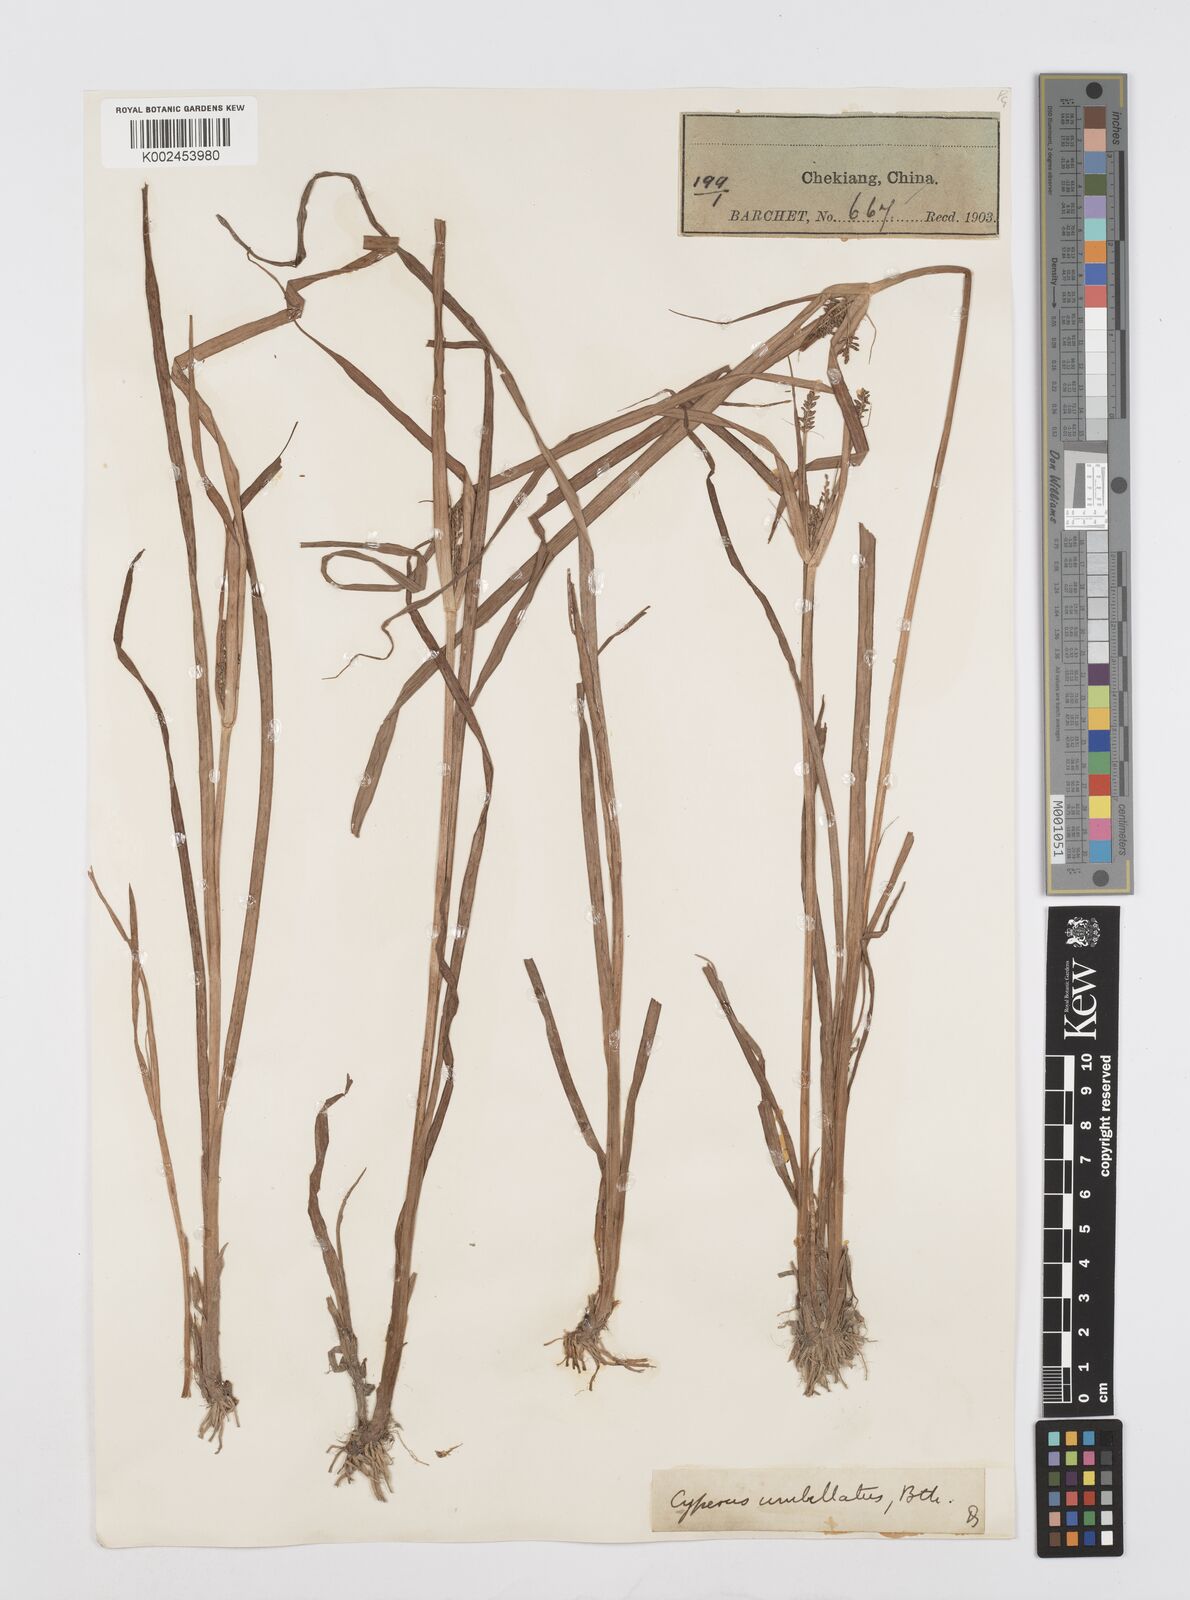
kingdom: Plantae
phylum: Tracheophyta
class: Liliopsida
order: Poales
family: Cyperaceae
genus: Cyperus
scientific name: Cyperus
